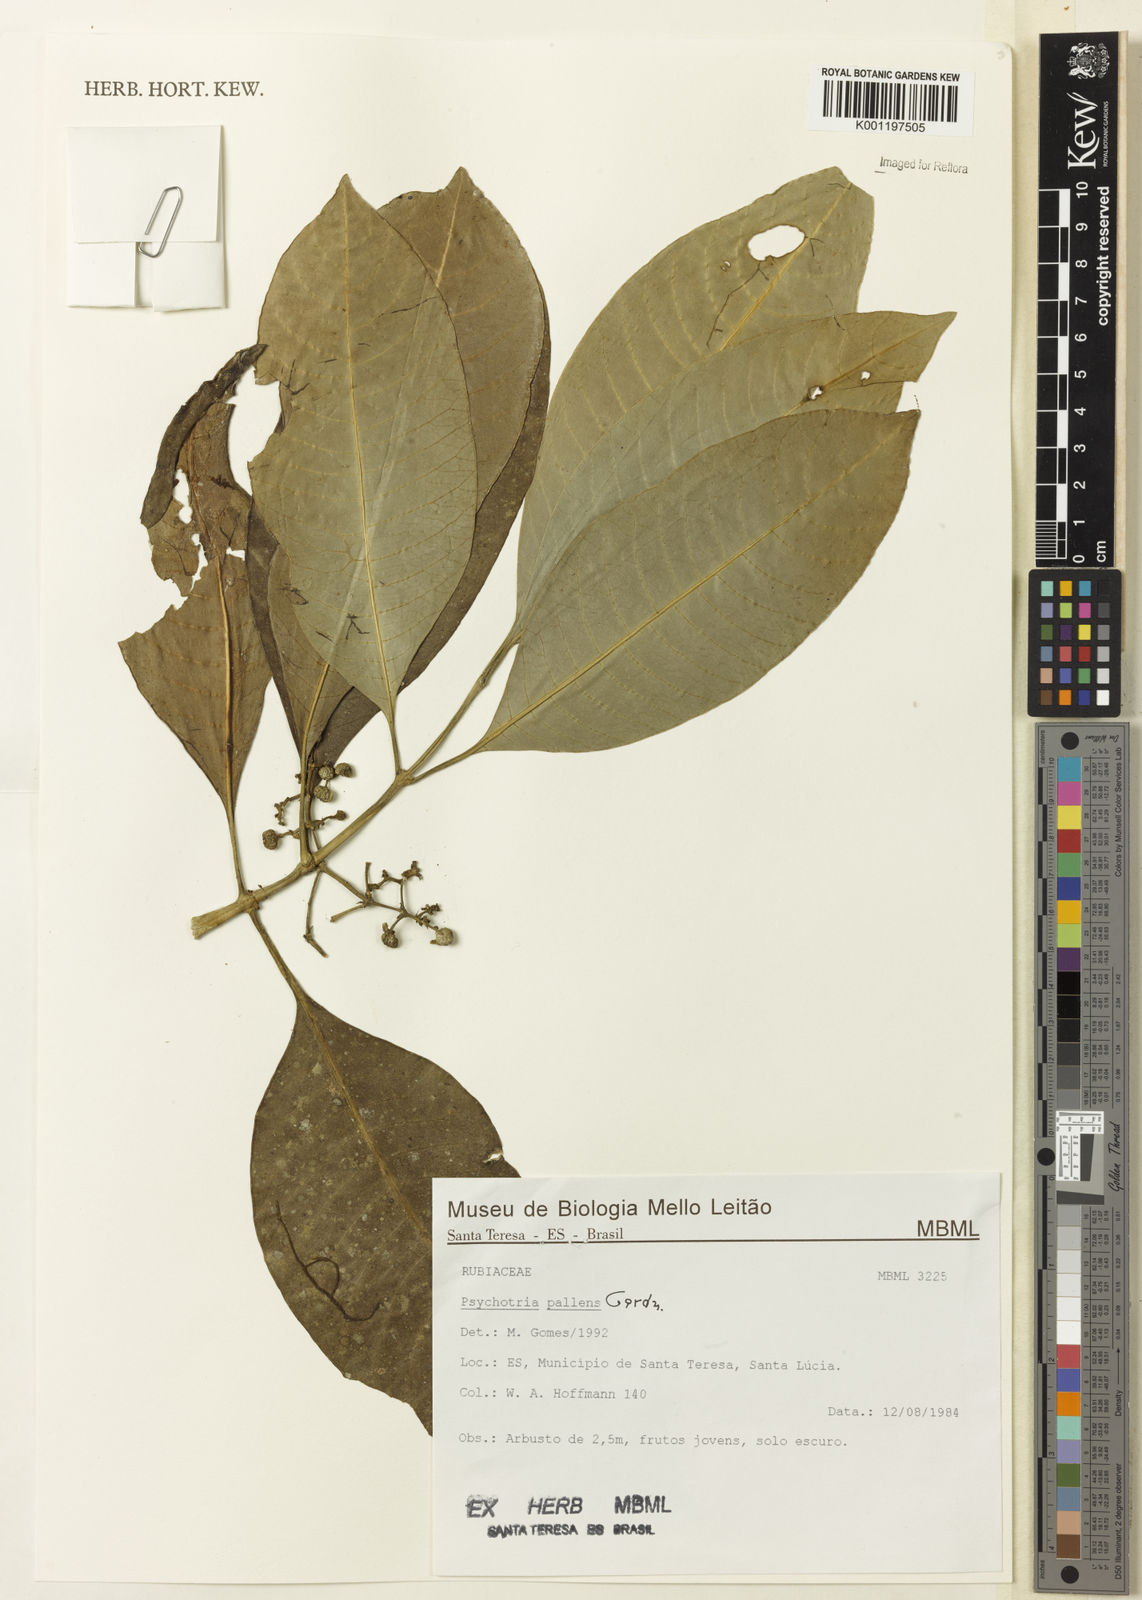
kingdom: Plantae
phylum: Tracheophyta
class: Magnoliopsida
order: Gentianales
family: Rubiaceae
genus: Psychotria
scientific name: Psychotria pallens
